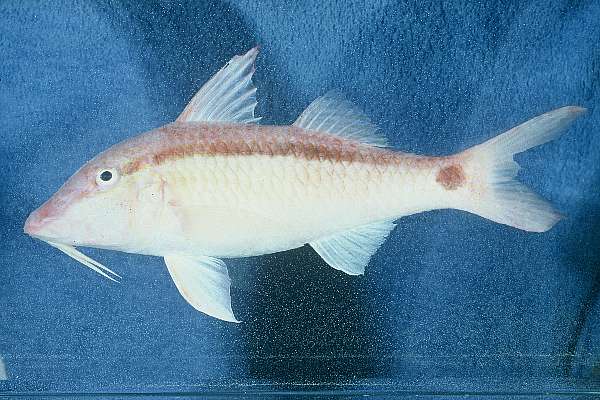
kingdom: Animalia
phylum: Chordata
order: Perciformes
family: Mullidae
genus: Parupeneus
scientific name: Parupeneus barberinus
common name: Dash-and-dot goatfish
